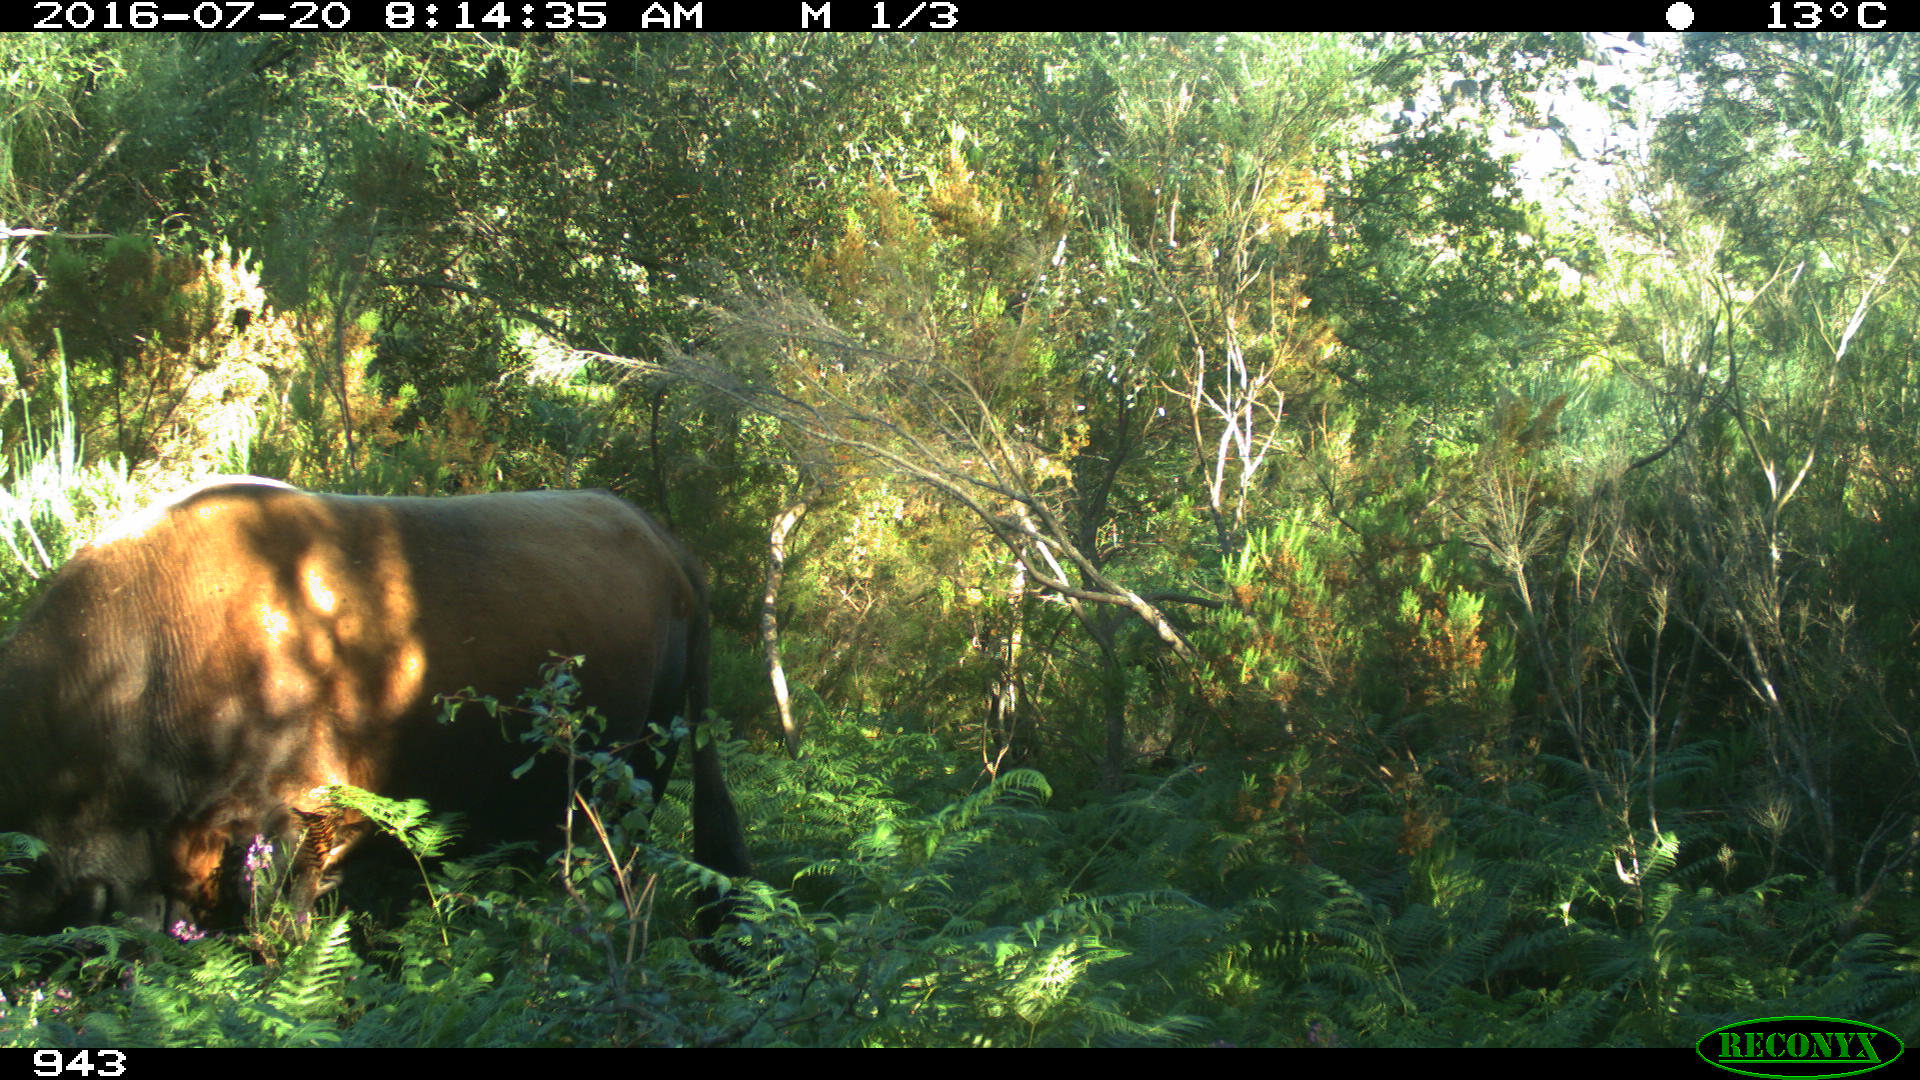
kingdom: Animalia
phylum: Chordata
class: Mammalia
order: Artiodactyla
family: Bovidae
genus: Bos
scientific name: Bos taurus
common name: Domesticated cattle
